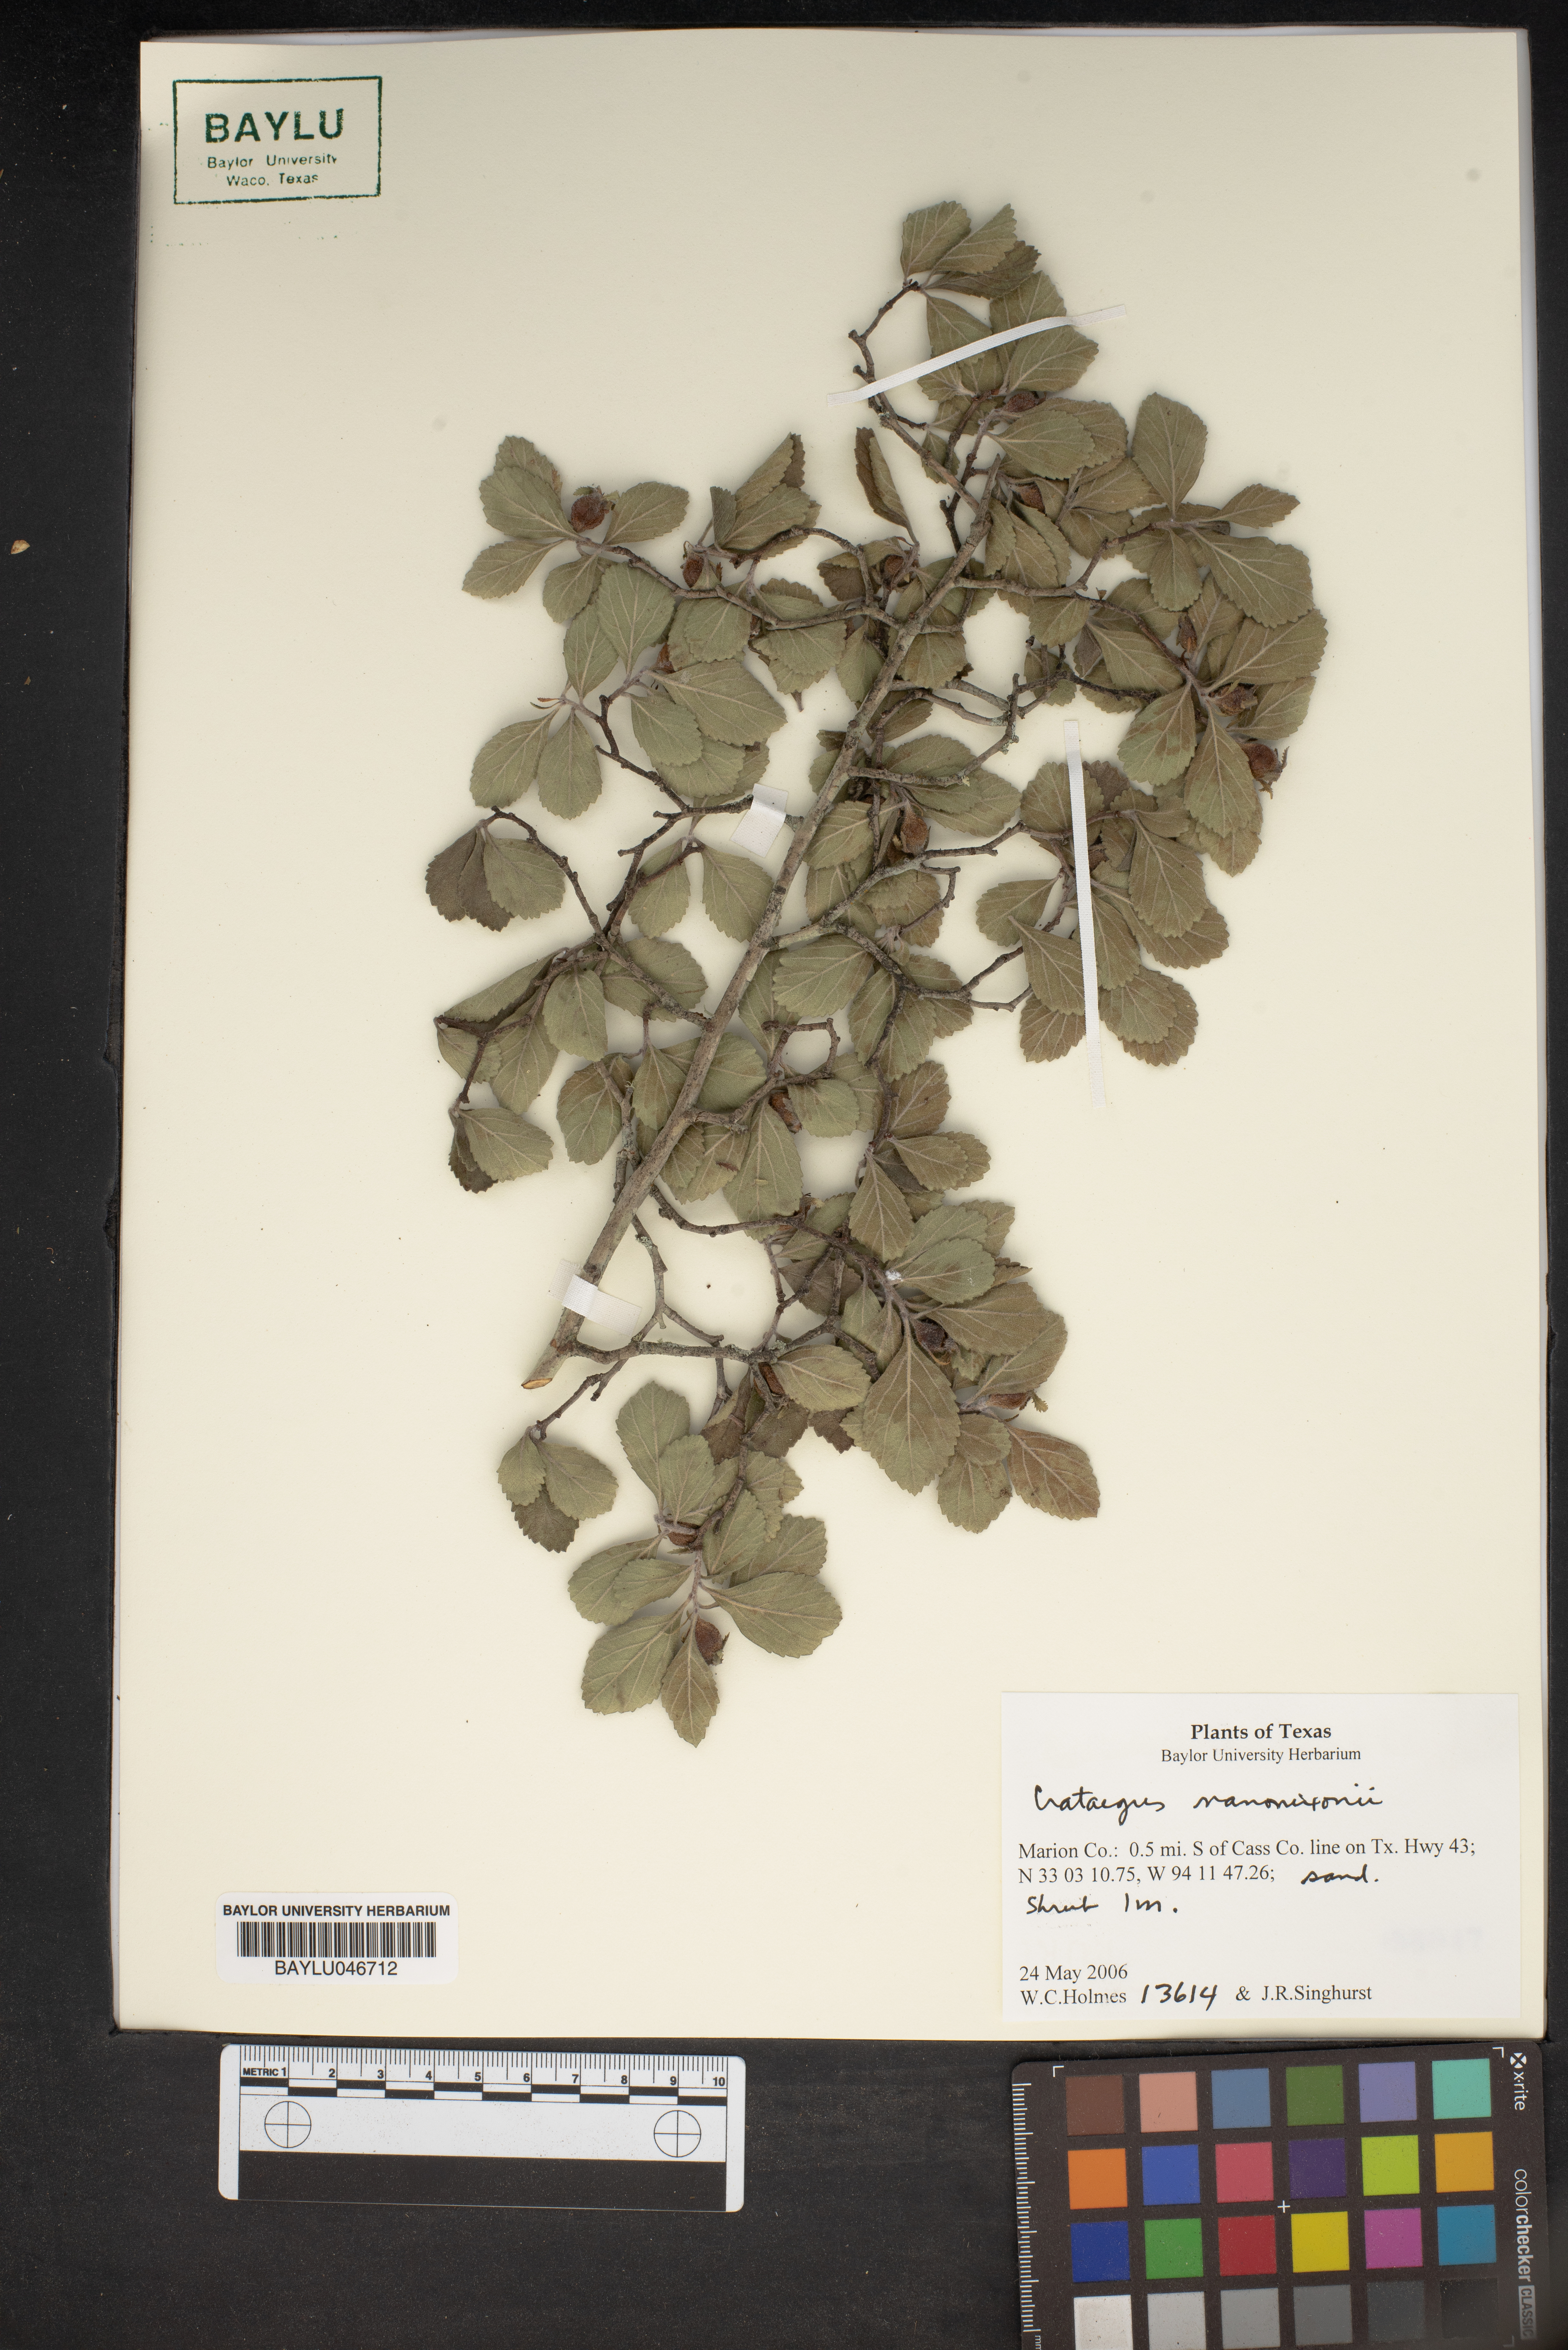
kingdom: Plantae
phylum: Tracheophyta
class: Magnoliopsida
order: Rosales
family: Rosaceae
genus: Crataegus
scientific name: Crataegus nananixonii
